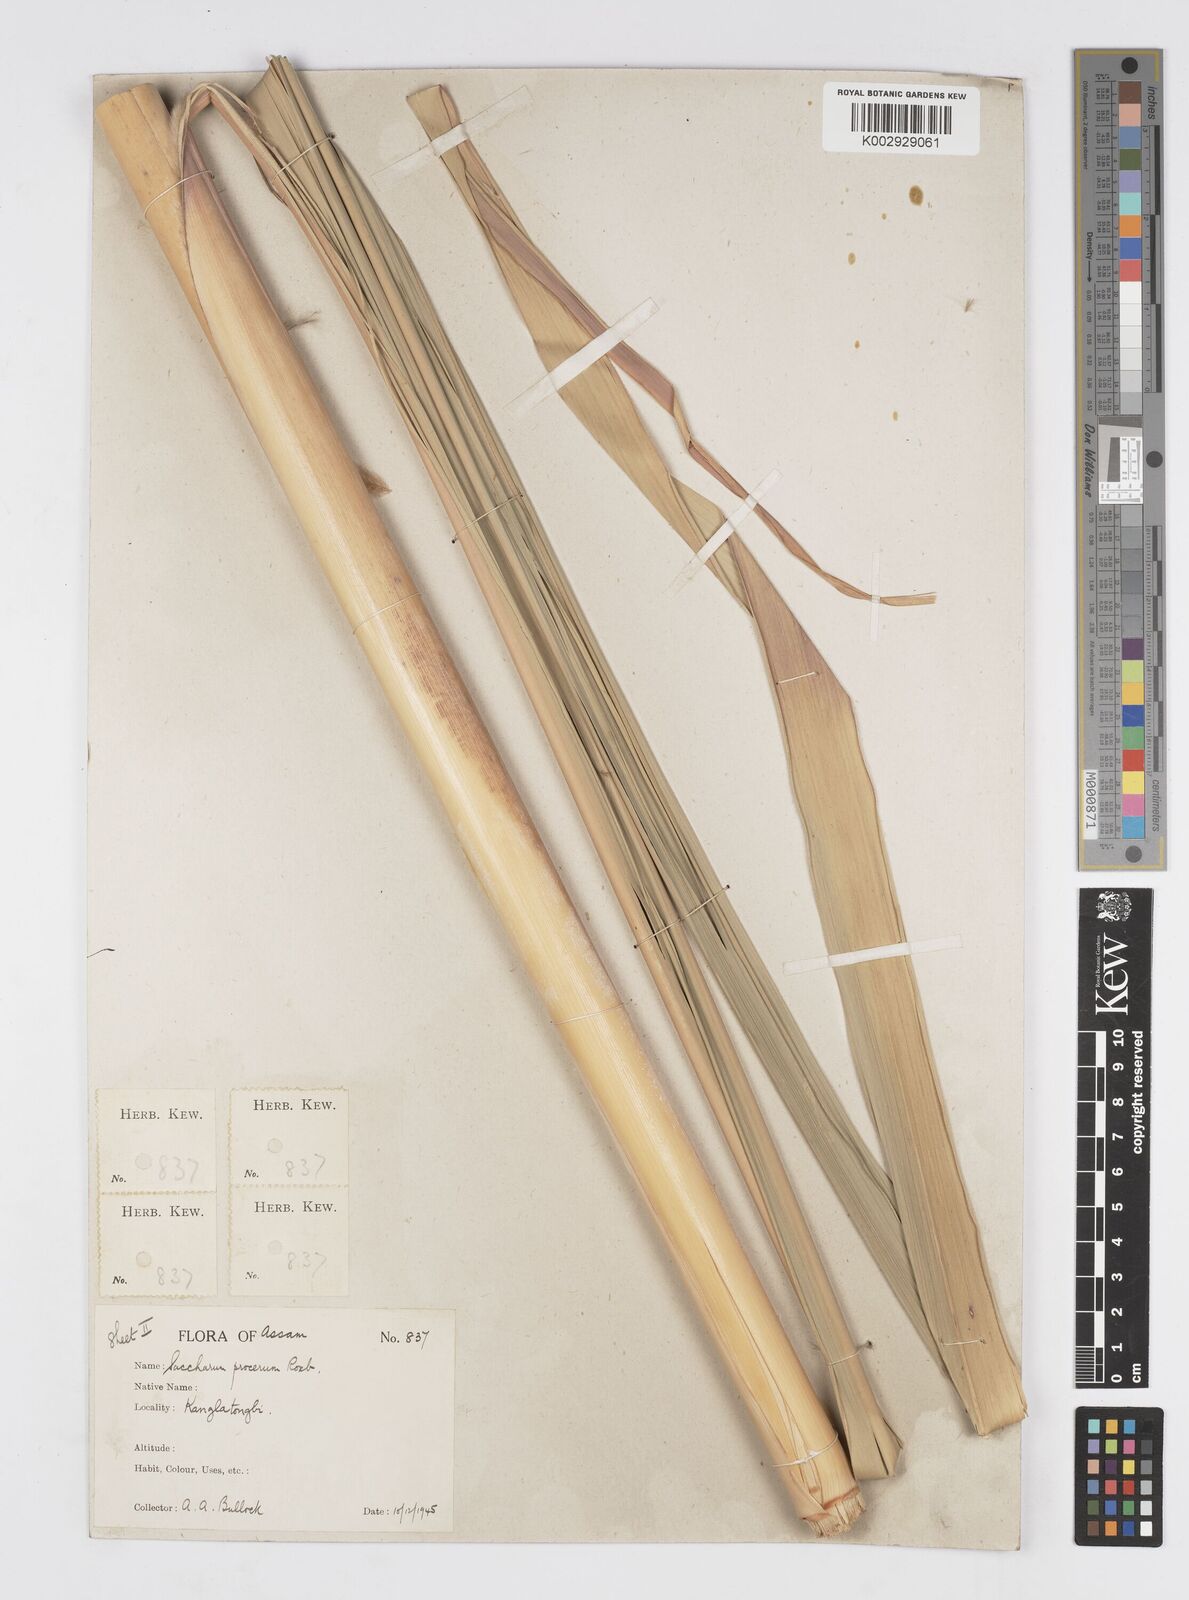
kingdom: Plantae
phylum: Tracheophyta
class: Liliopsida
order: Poales
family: Poaceae
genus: Tripidium
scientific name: Tripidium procerum
